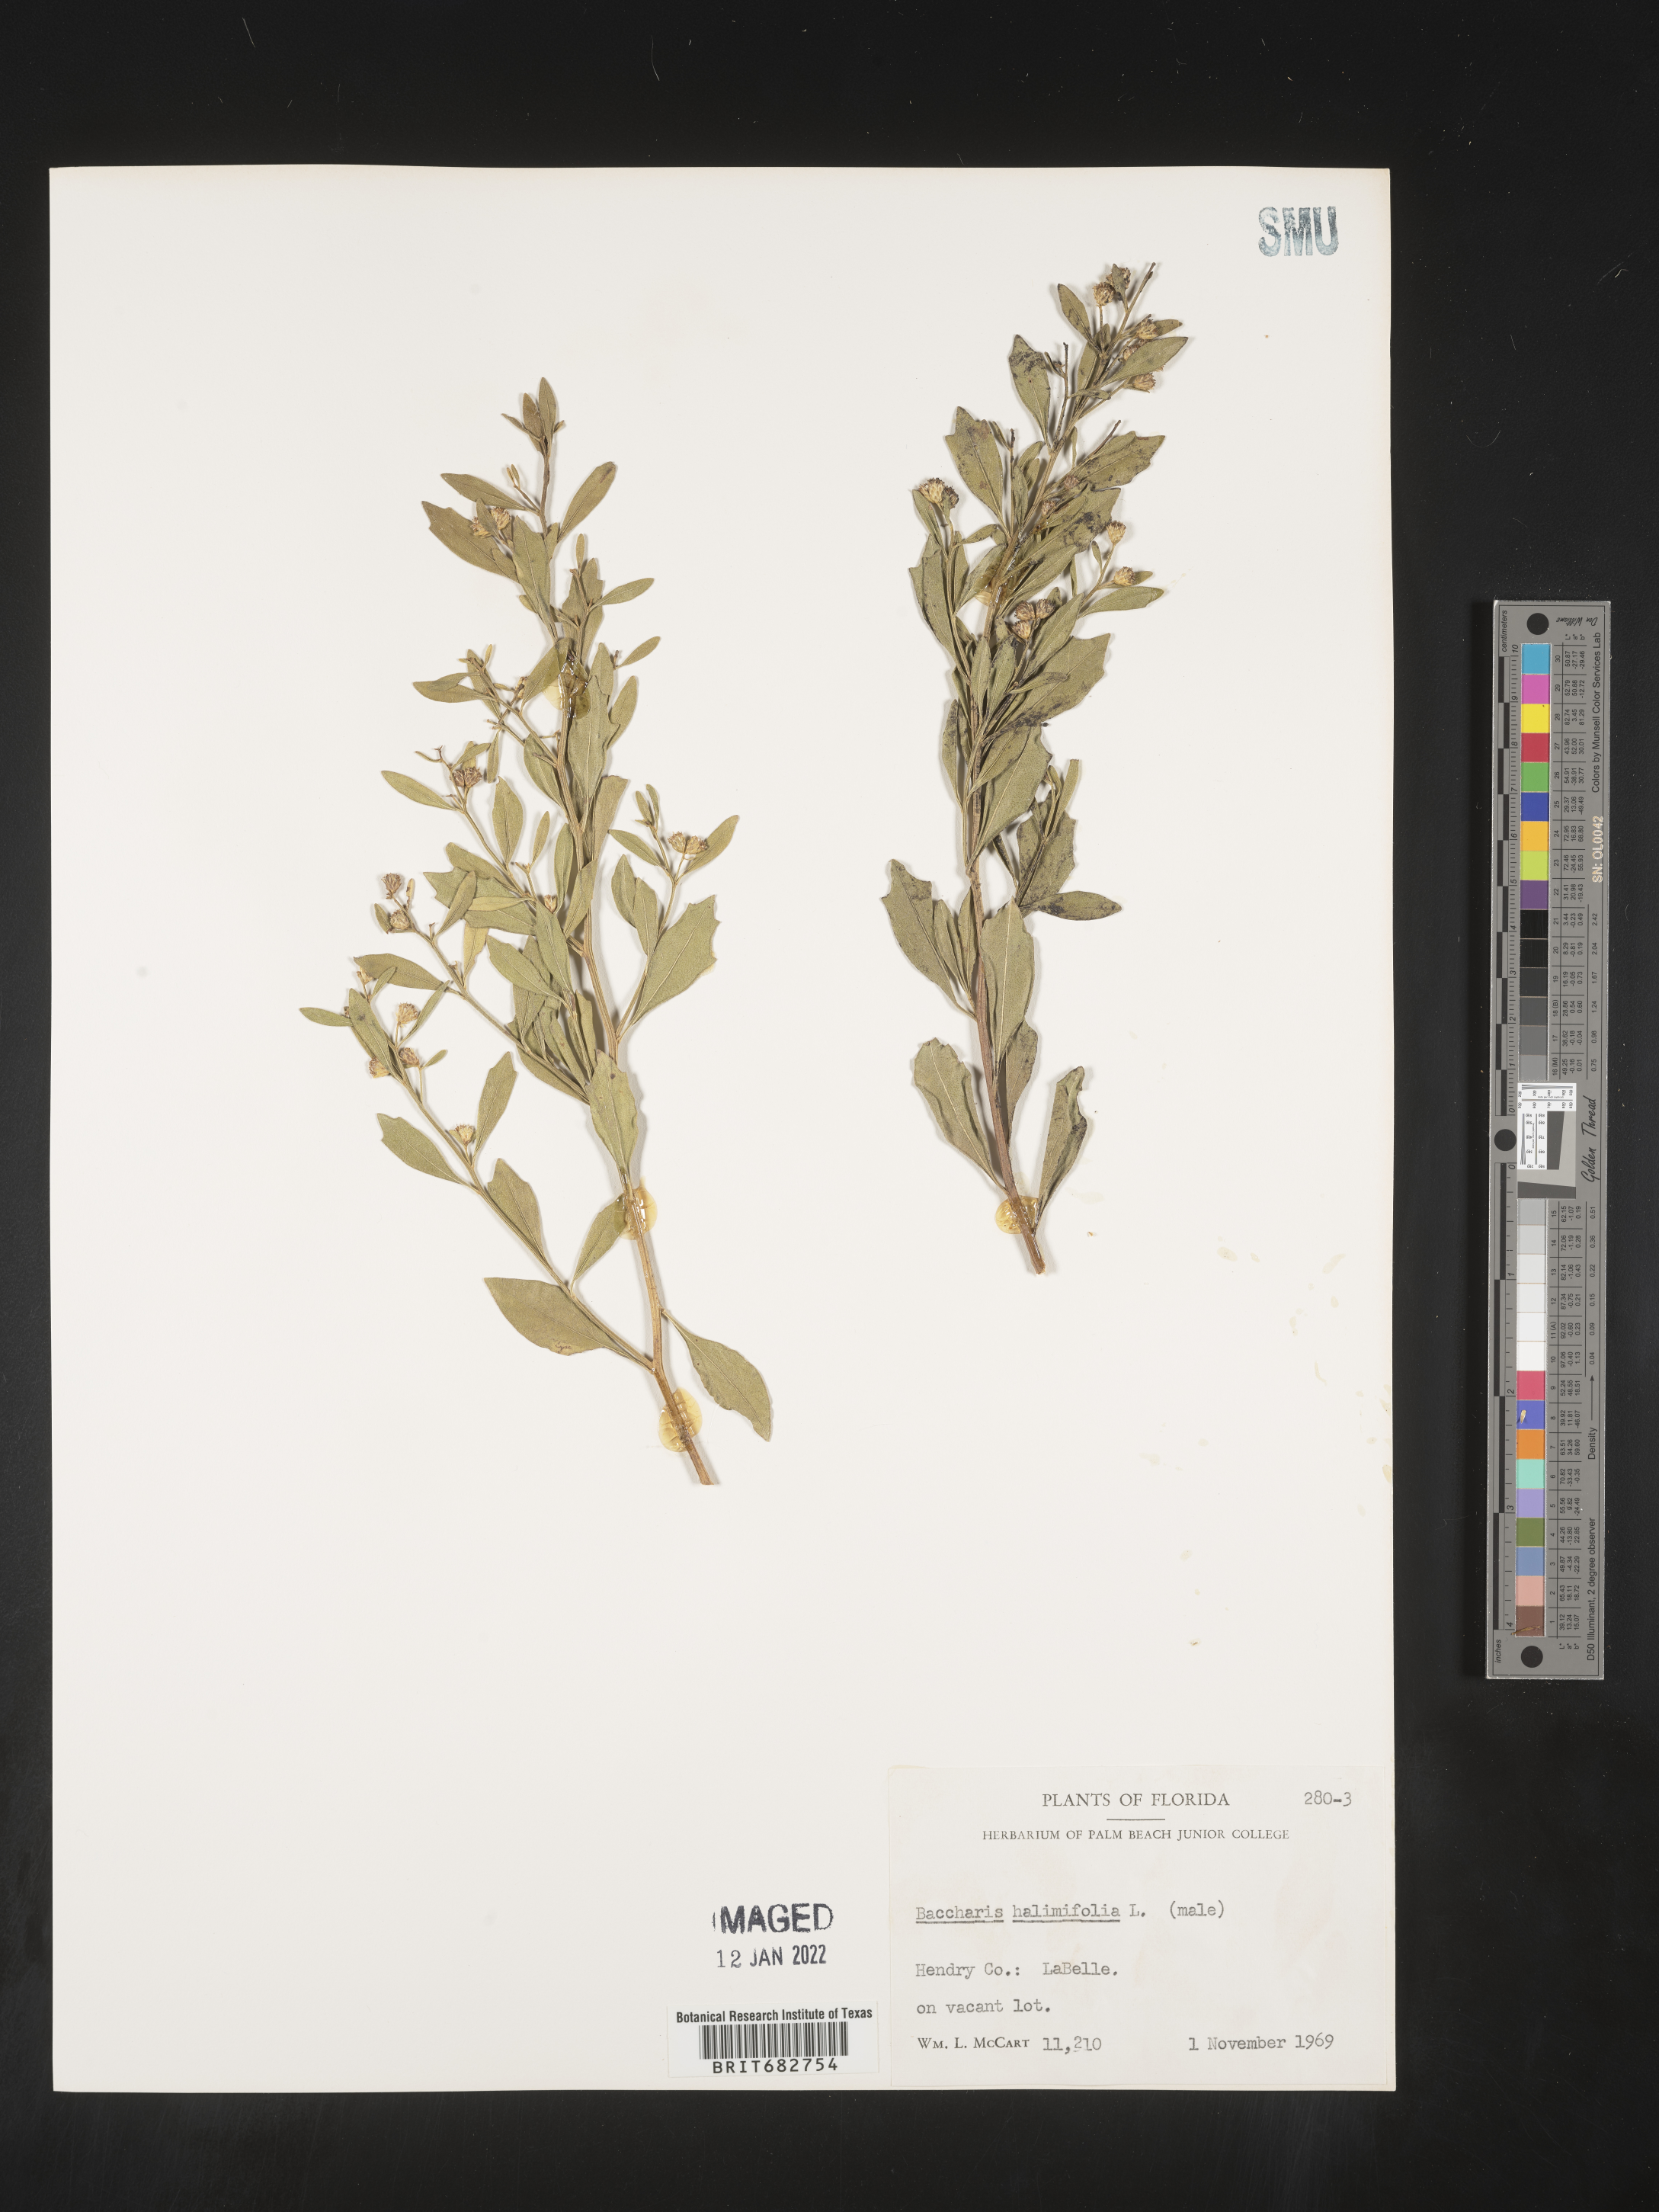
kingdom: Plantae
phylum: Tracheophyta
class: Magnoliopsida
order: Asterales
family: Asteraceae
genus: Nidorella
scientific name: Nidorella ivifolia
